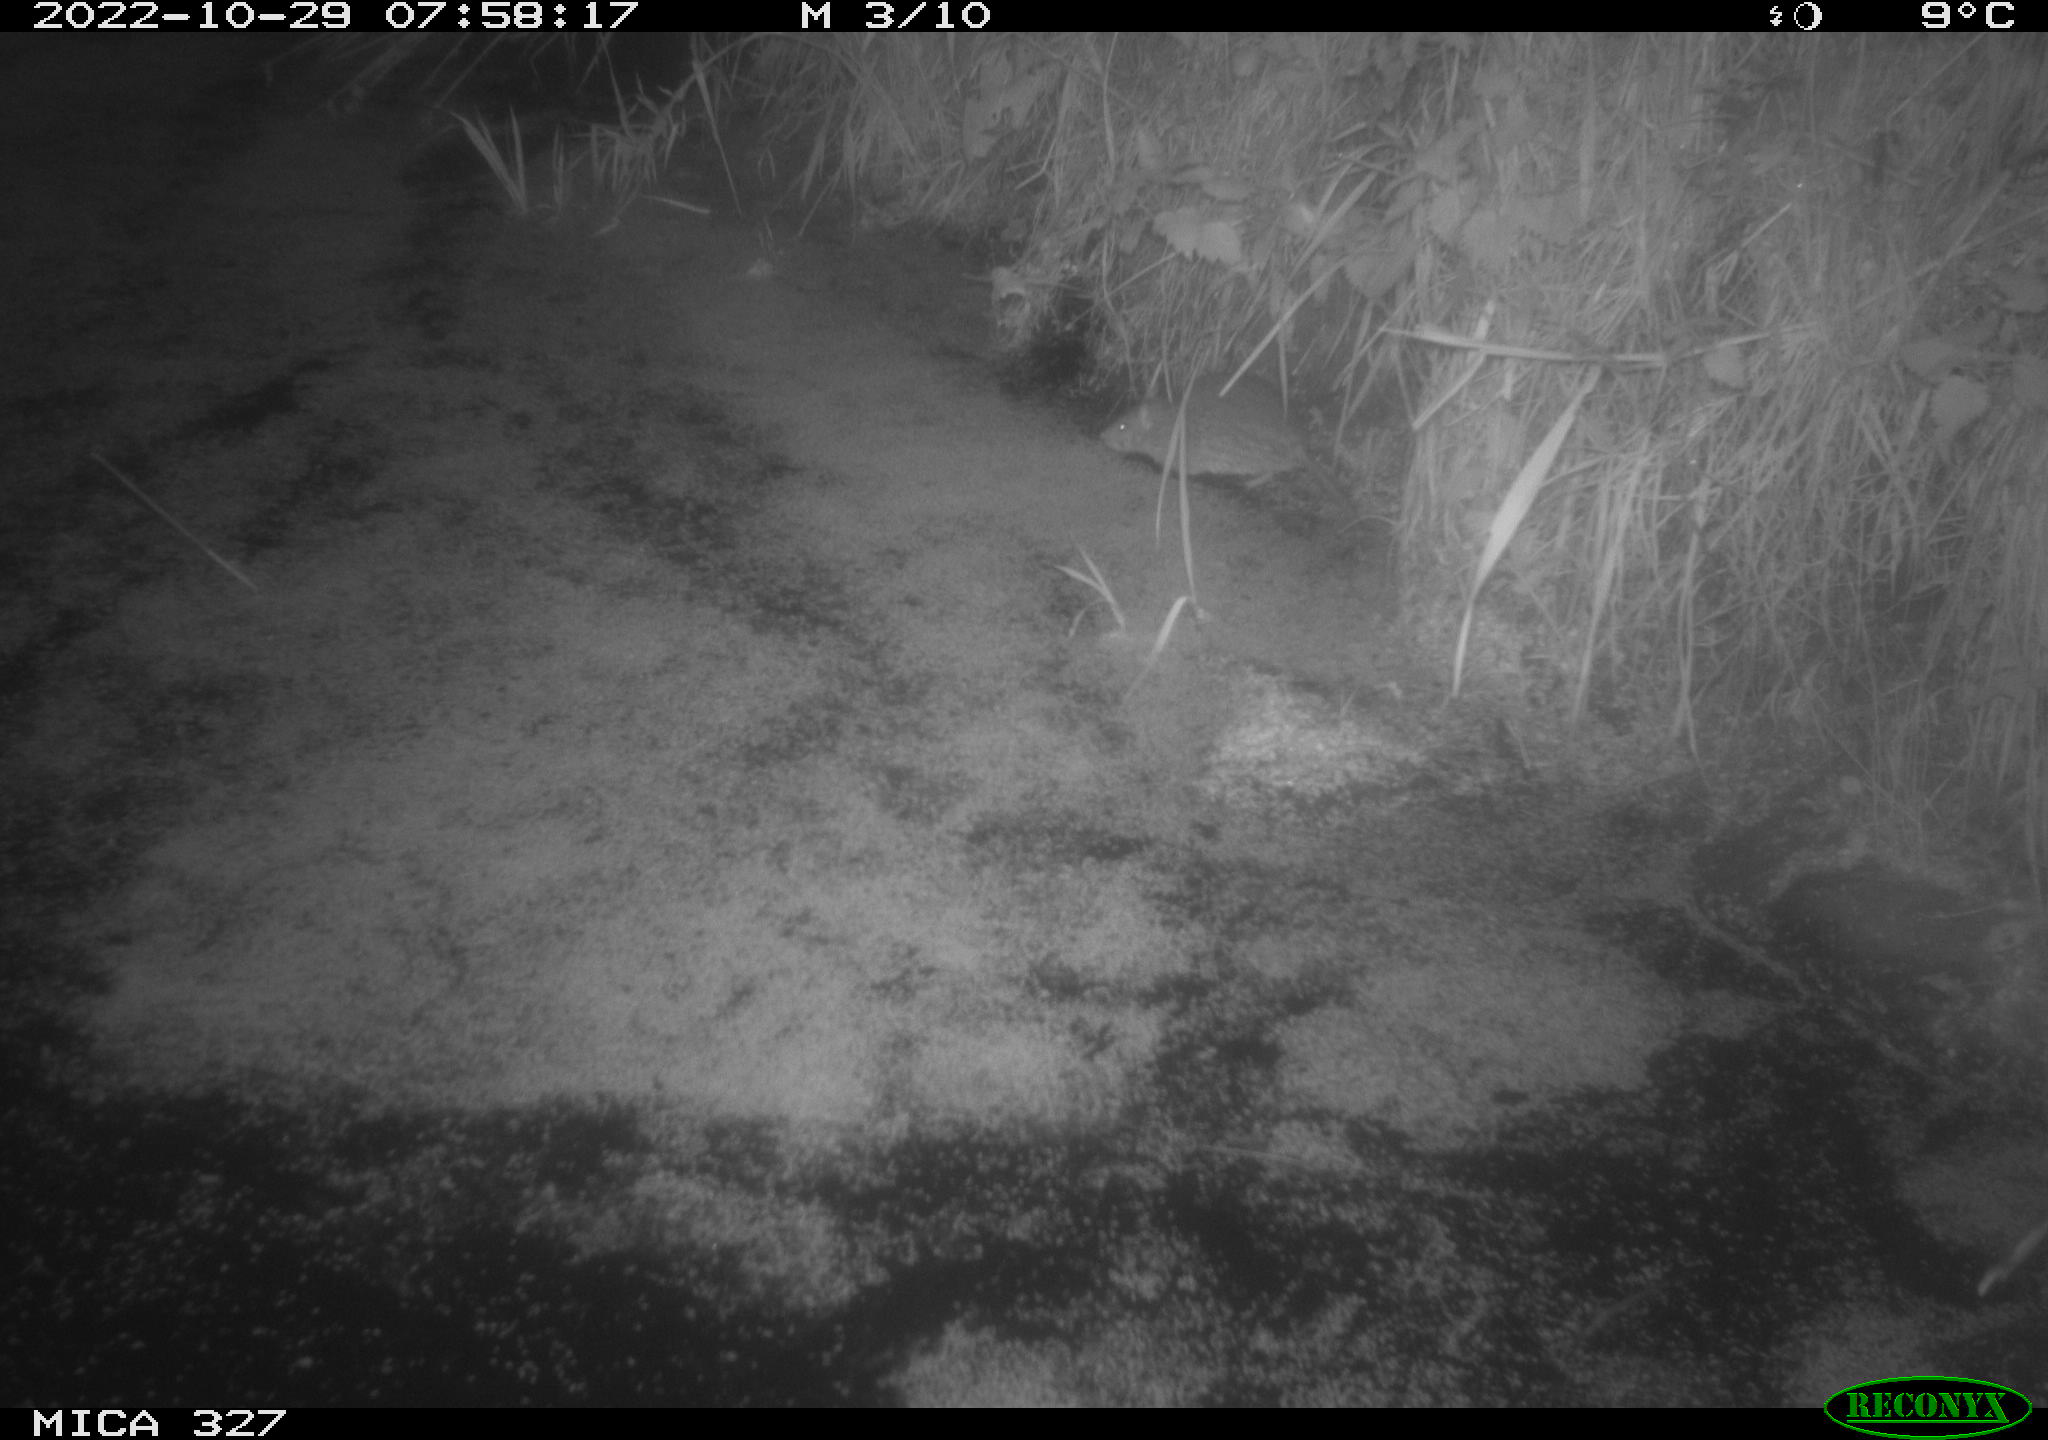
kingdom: Animalia
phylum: Chordata
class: Mammalia
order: Rodentia
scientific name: Rodentia
